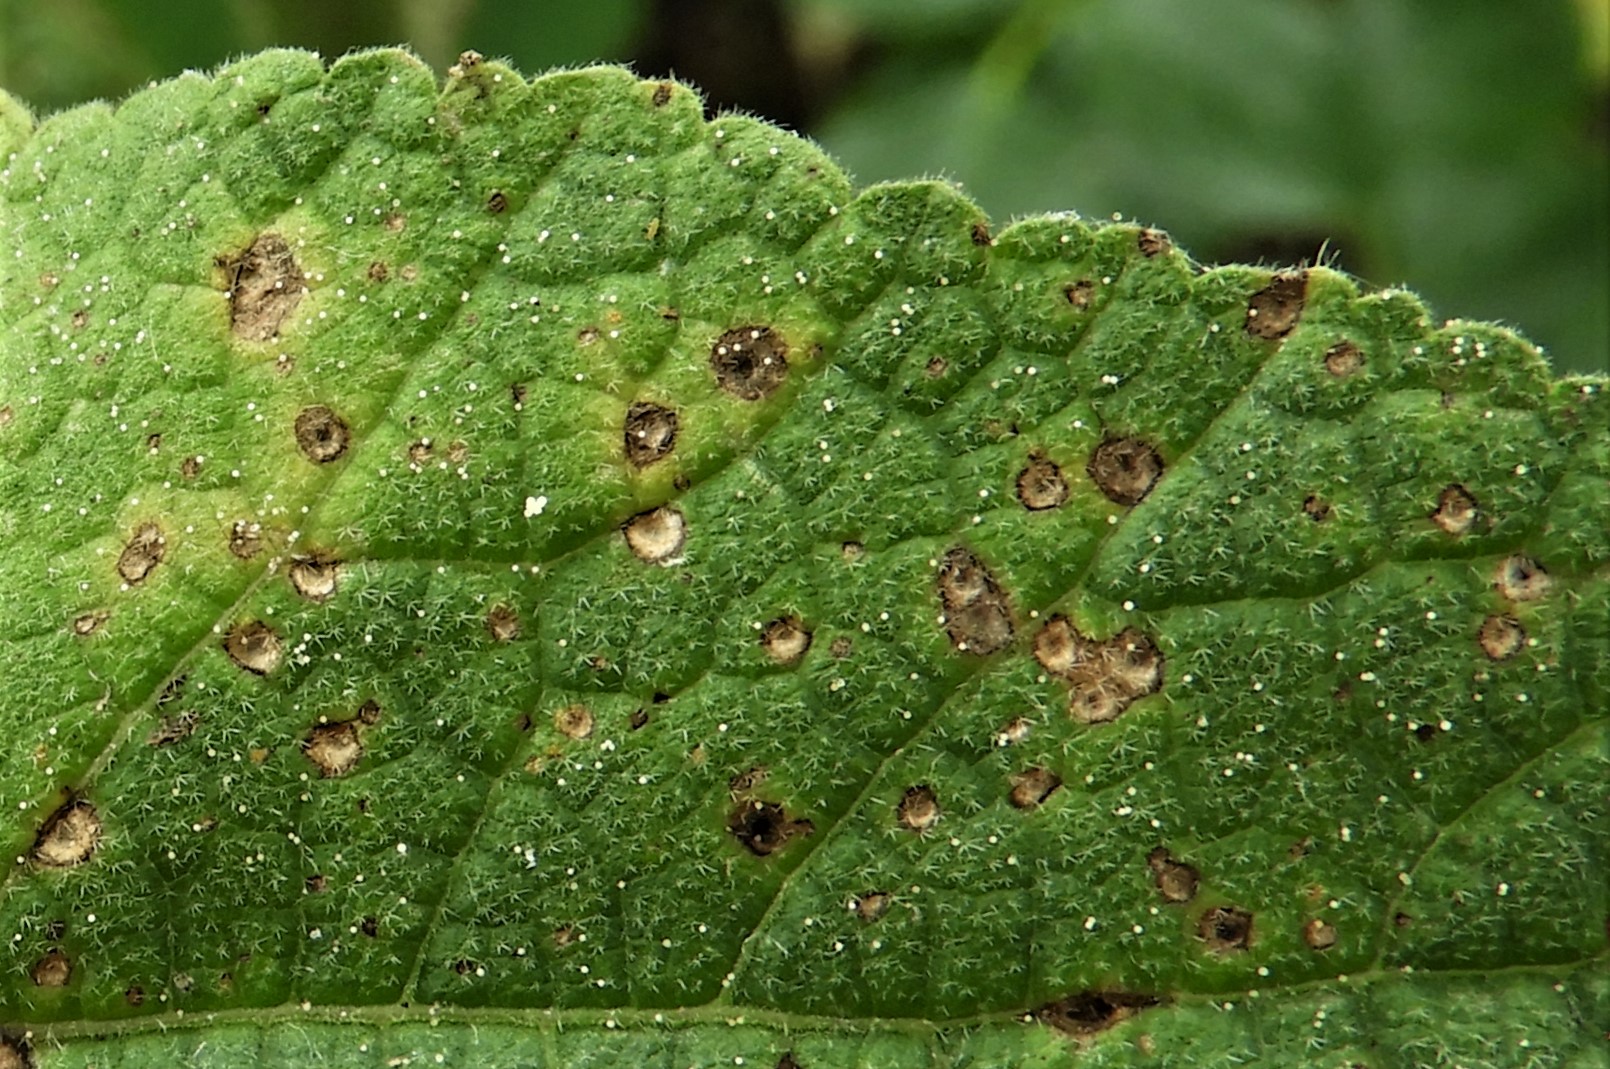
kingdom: Fungi
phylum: Basidiomycota
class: Pucciniomycetes
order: Pucciniales
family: Pucciniaceae
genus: Puccinia
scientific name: Puccinia malvacearum
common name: stokrose-tvecellerust
